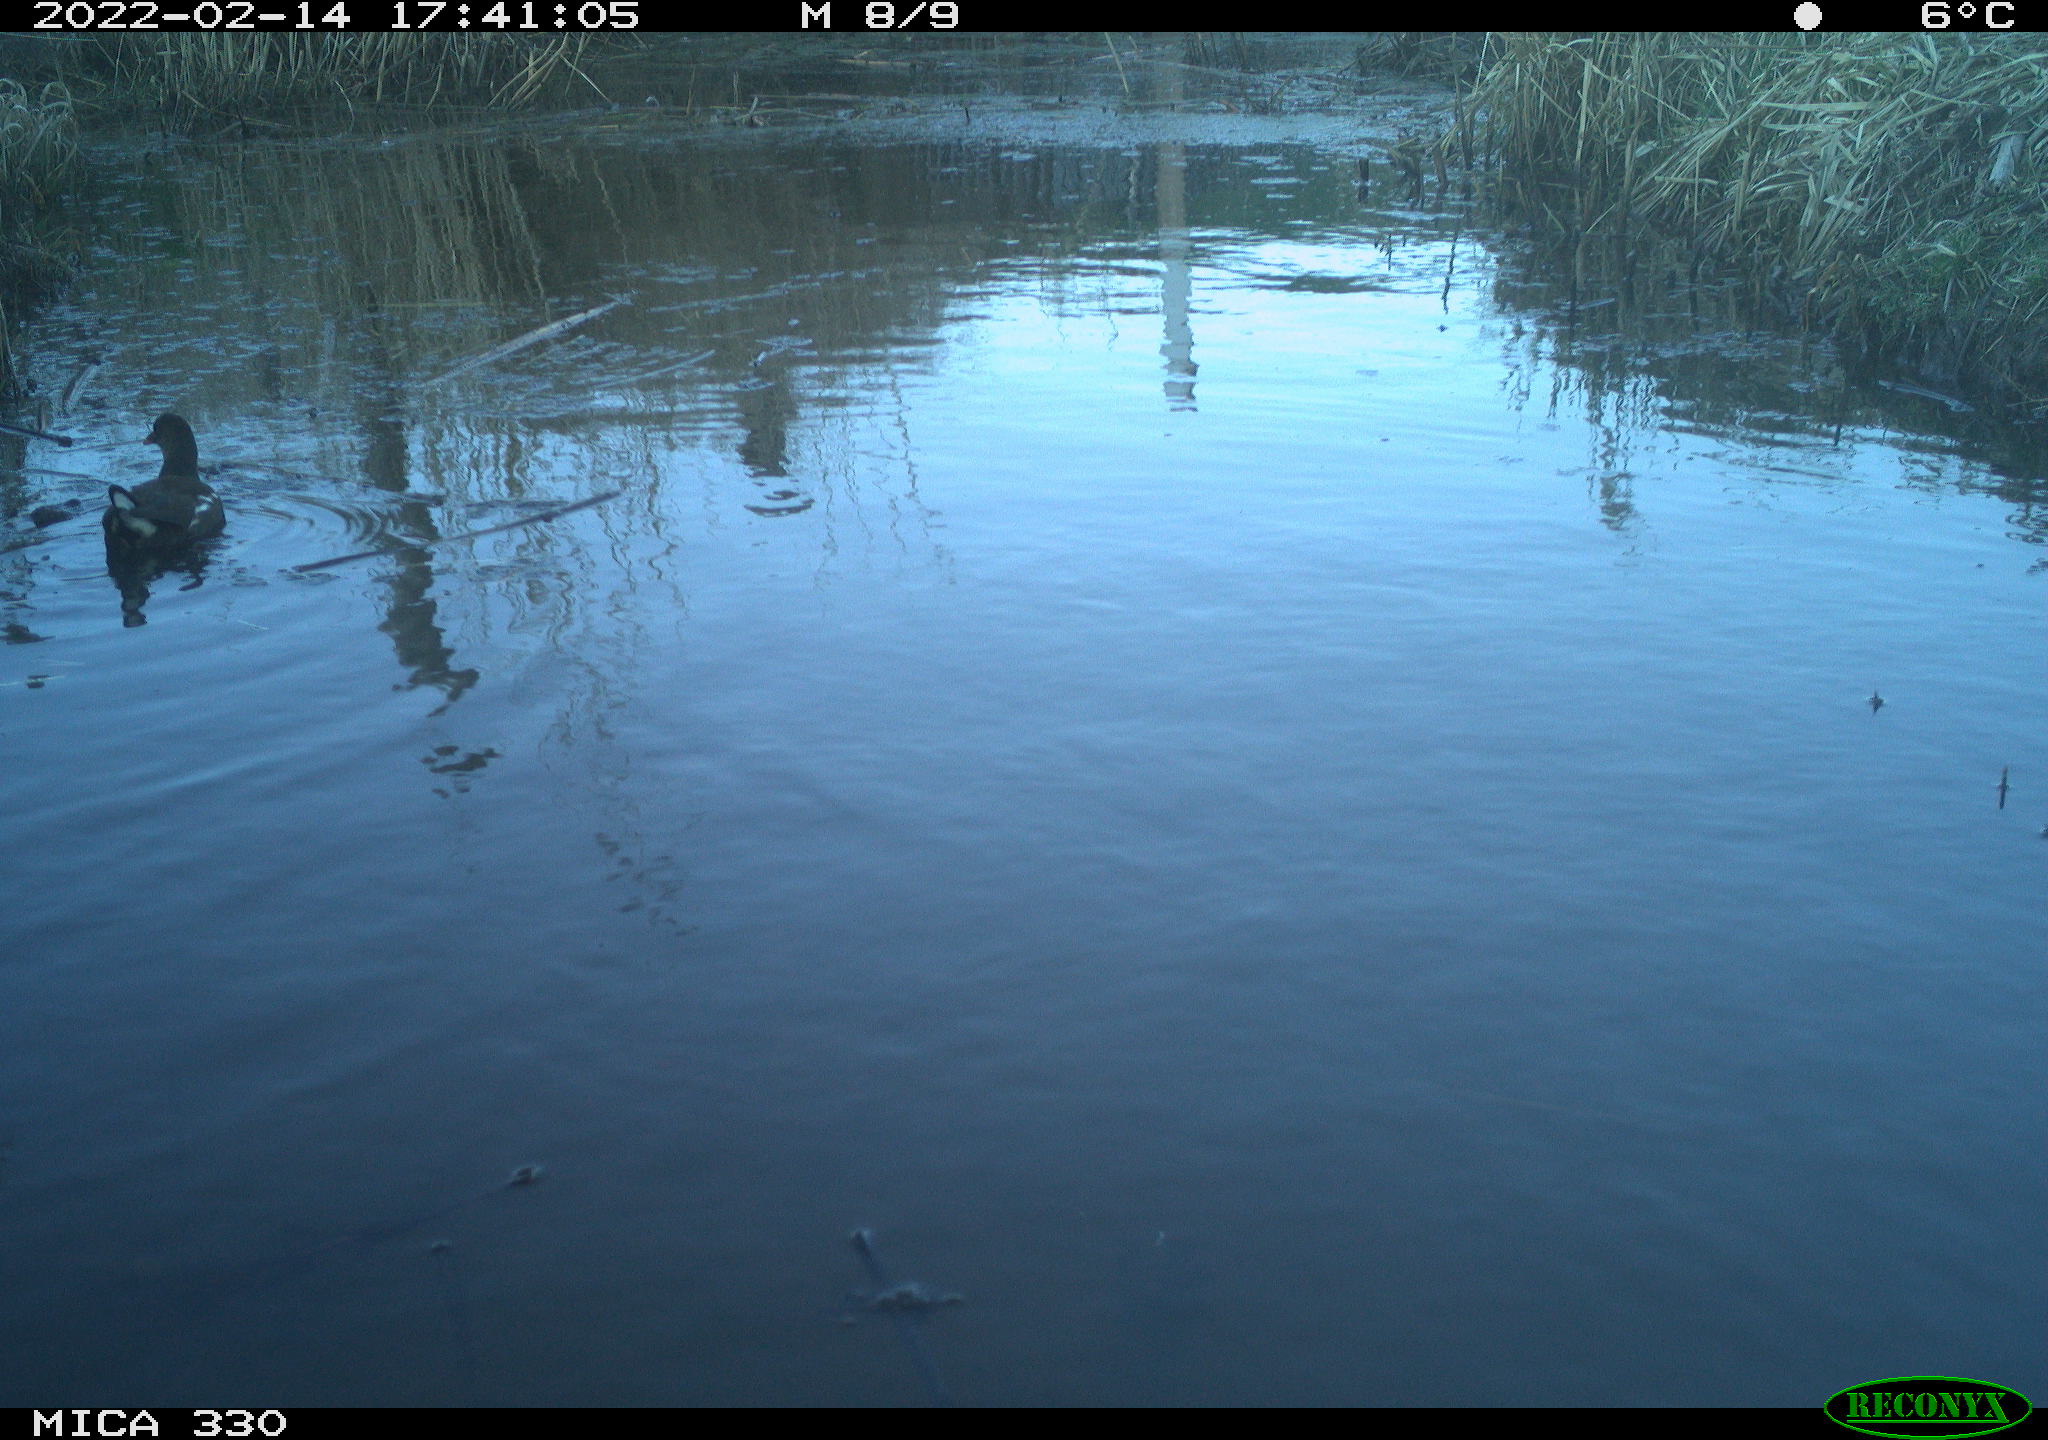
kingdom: Animalia
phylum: Chordata
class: Aves
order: Gruiformes
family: Rallidae
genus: Gallinula
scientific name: Gallinula chloropus
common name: Common moorhen
